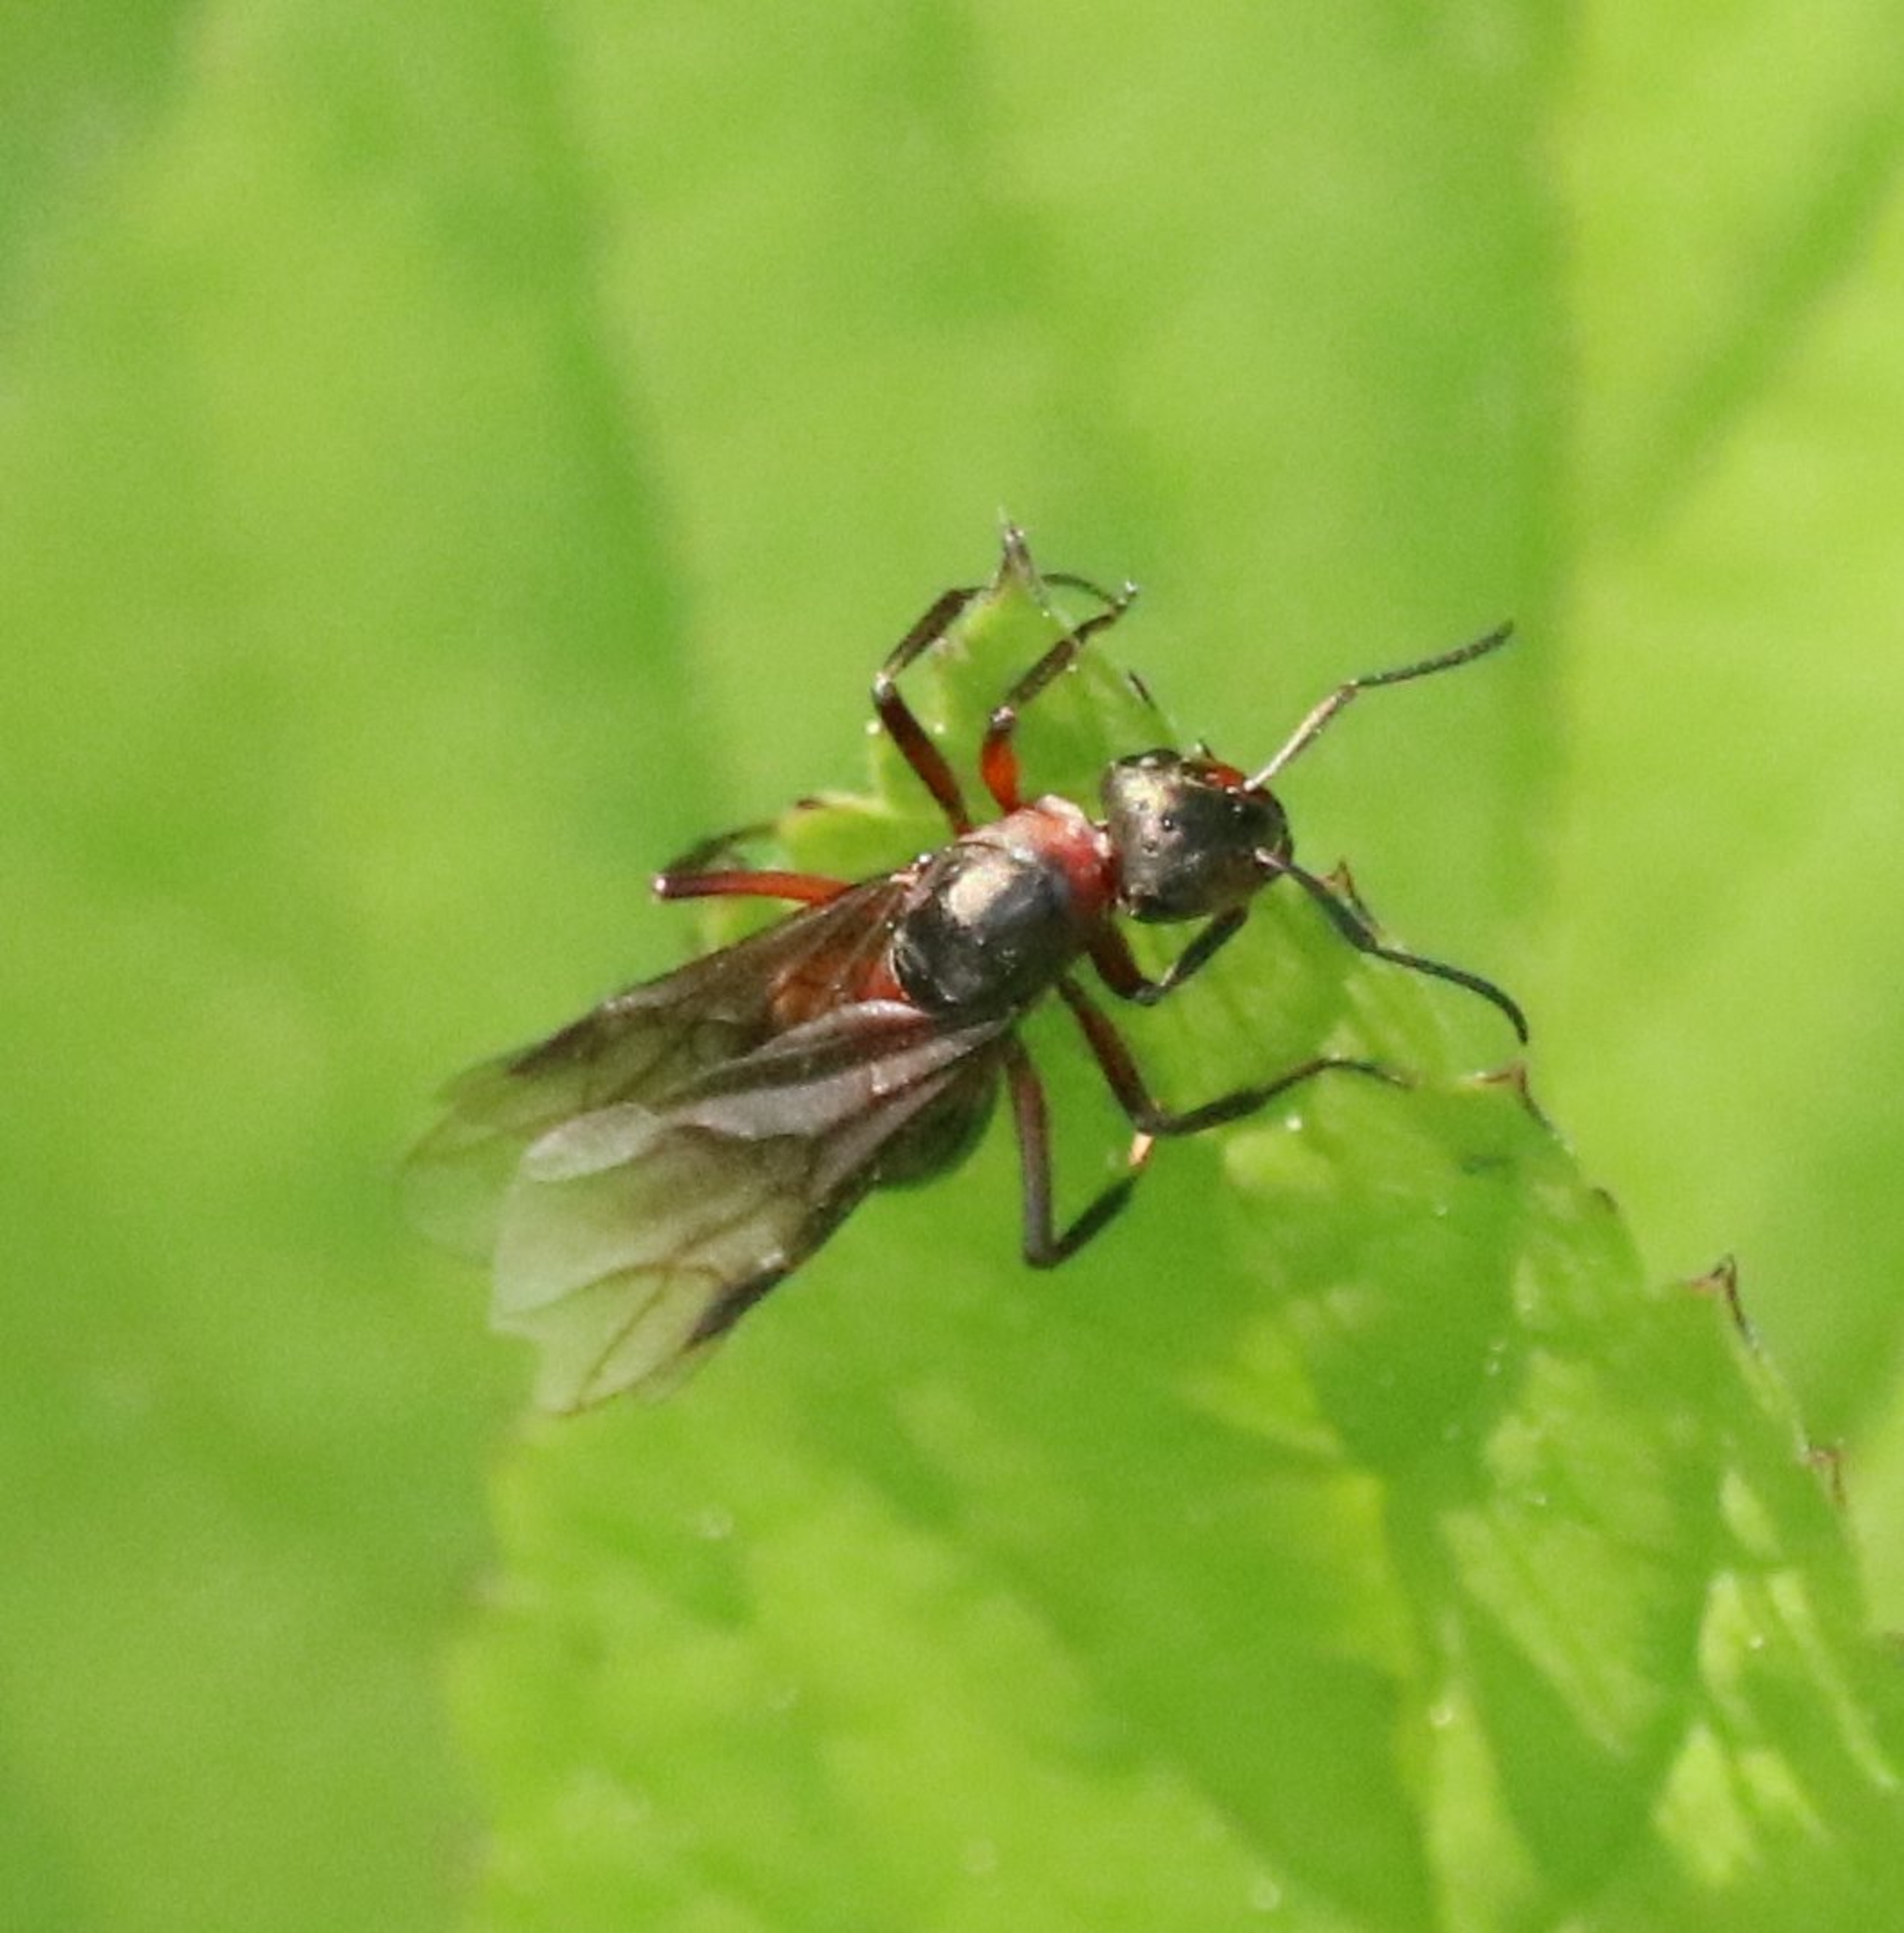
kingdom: Animalia
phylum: Arthropoda
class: Insecta
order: Hymenoptera
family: Formicidae
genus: Formica
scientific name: Formica
